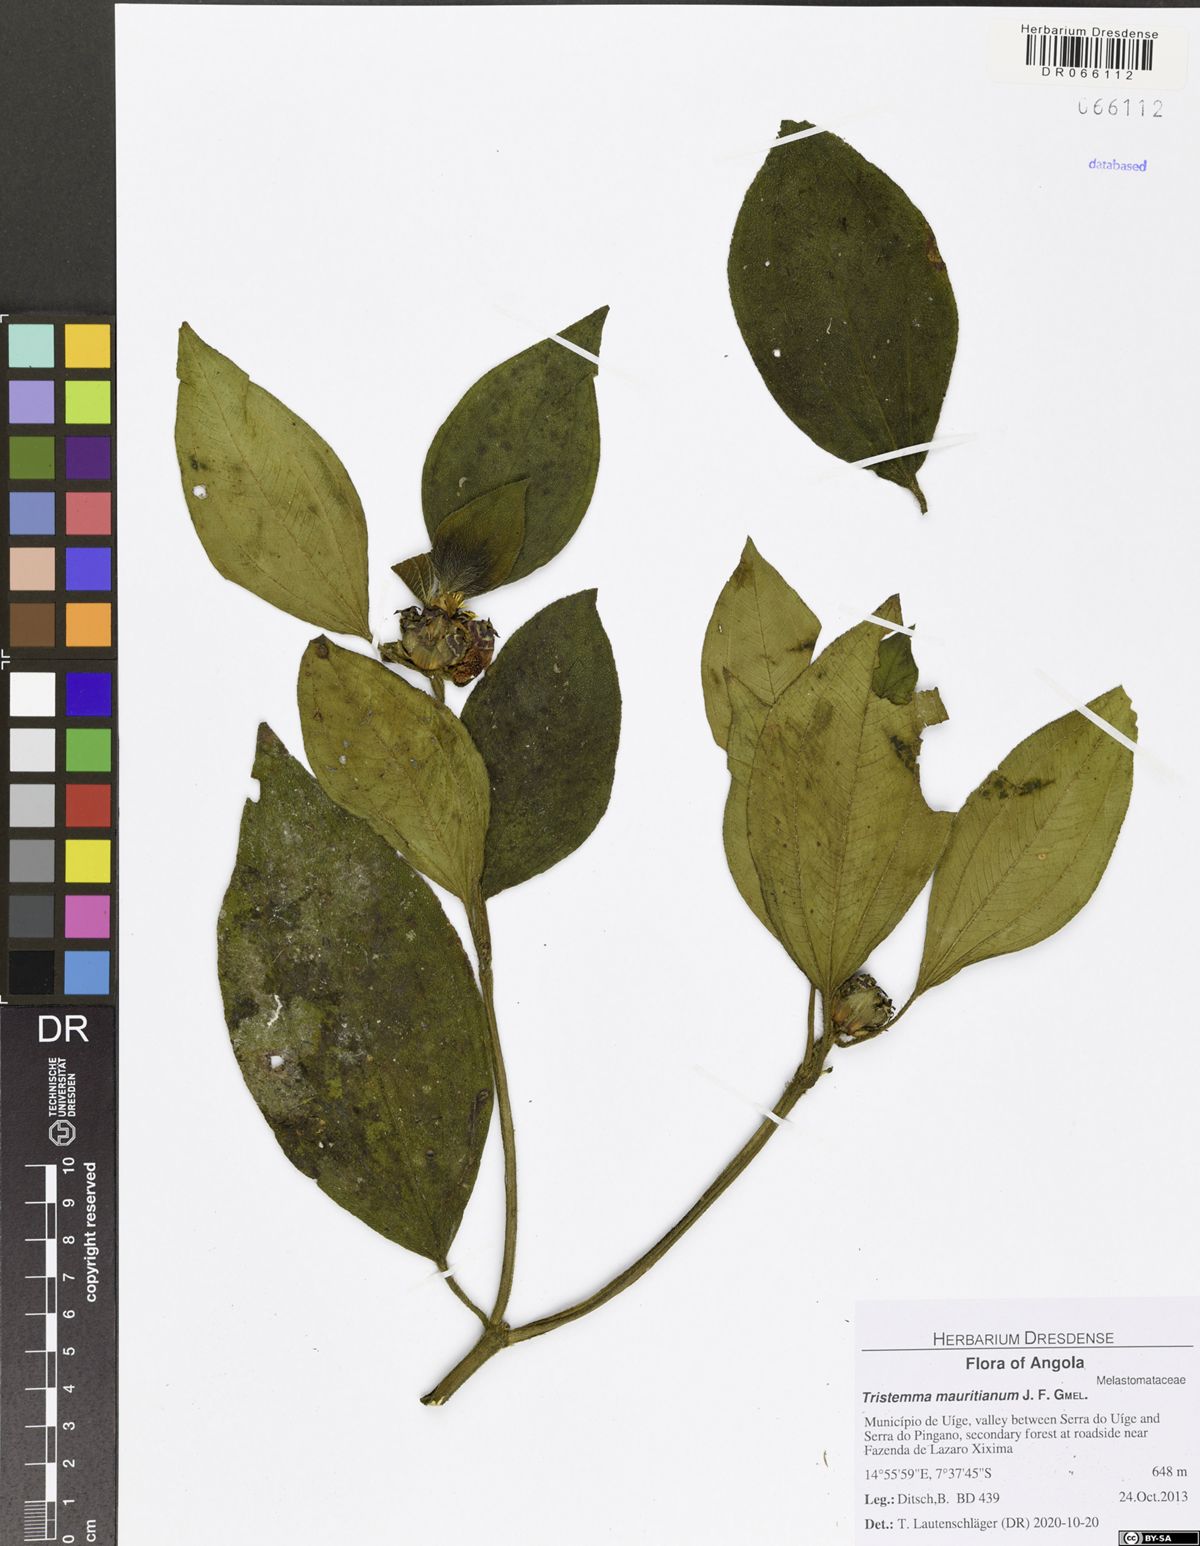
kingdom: Plantae
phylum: Tracheophyta
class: Magnoliopsida
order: Myrtales
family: Melastomataceae
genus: Tristemma
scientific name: Tristemma mauritianum
